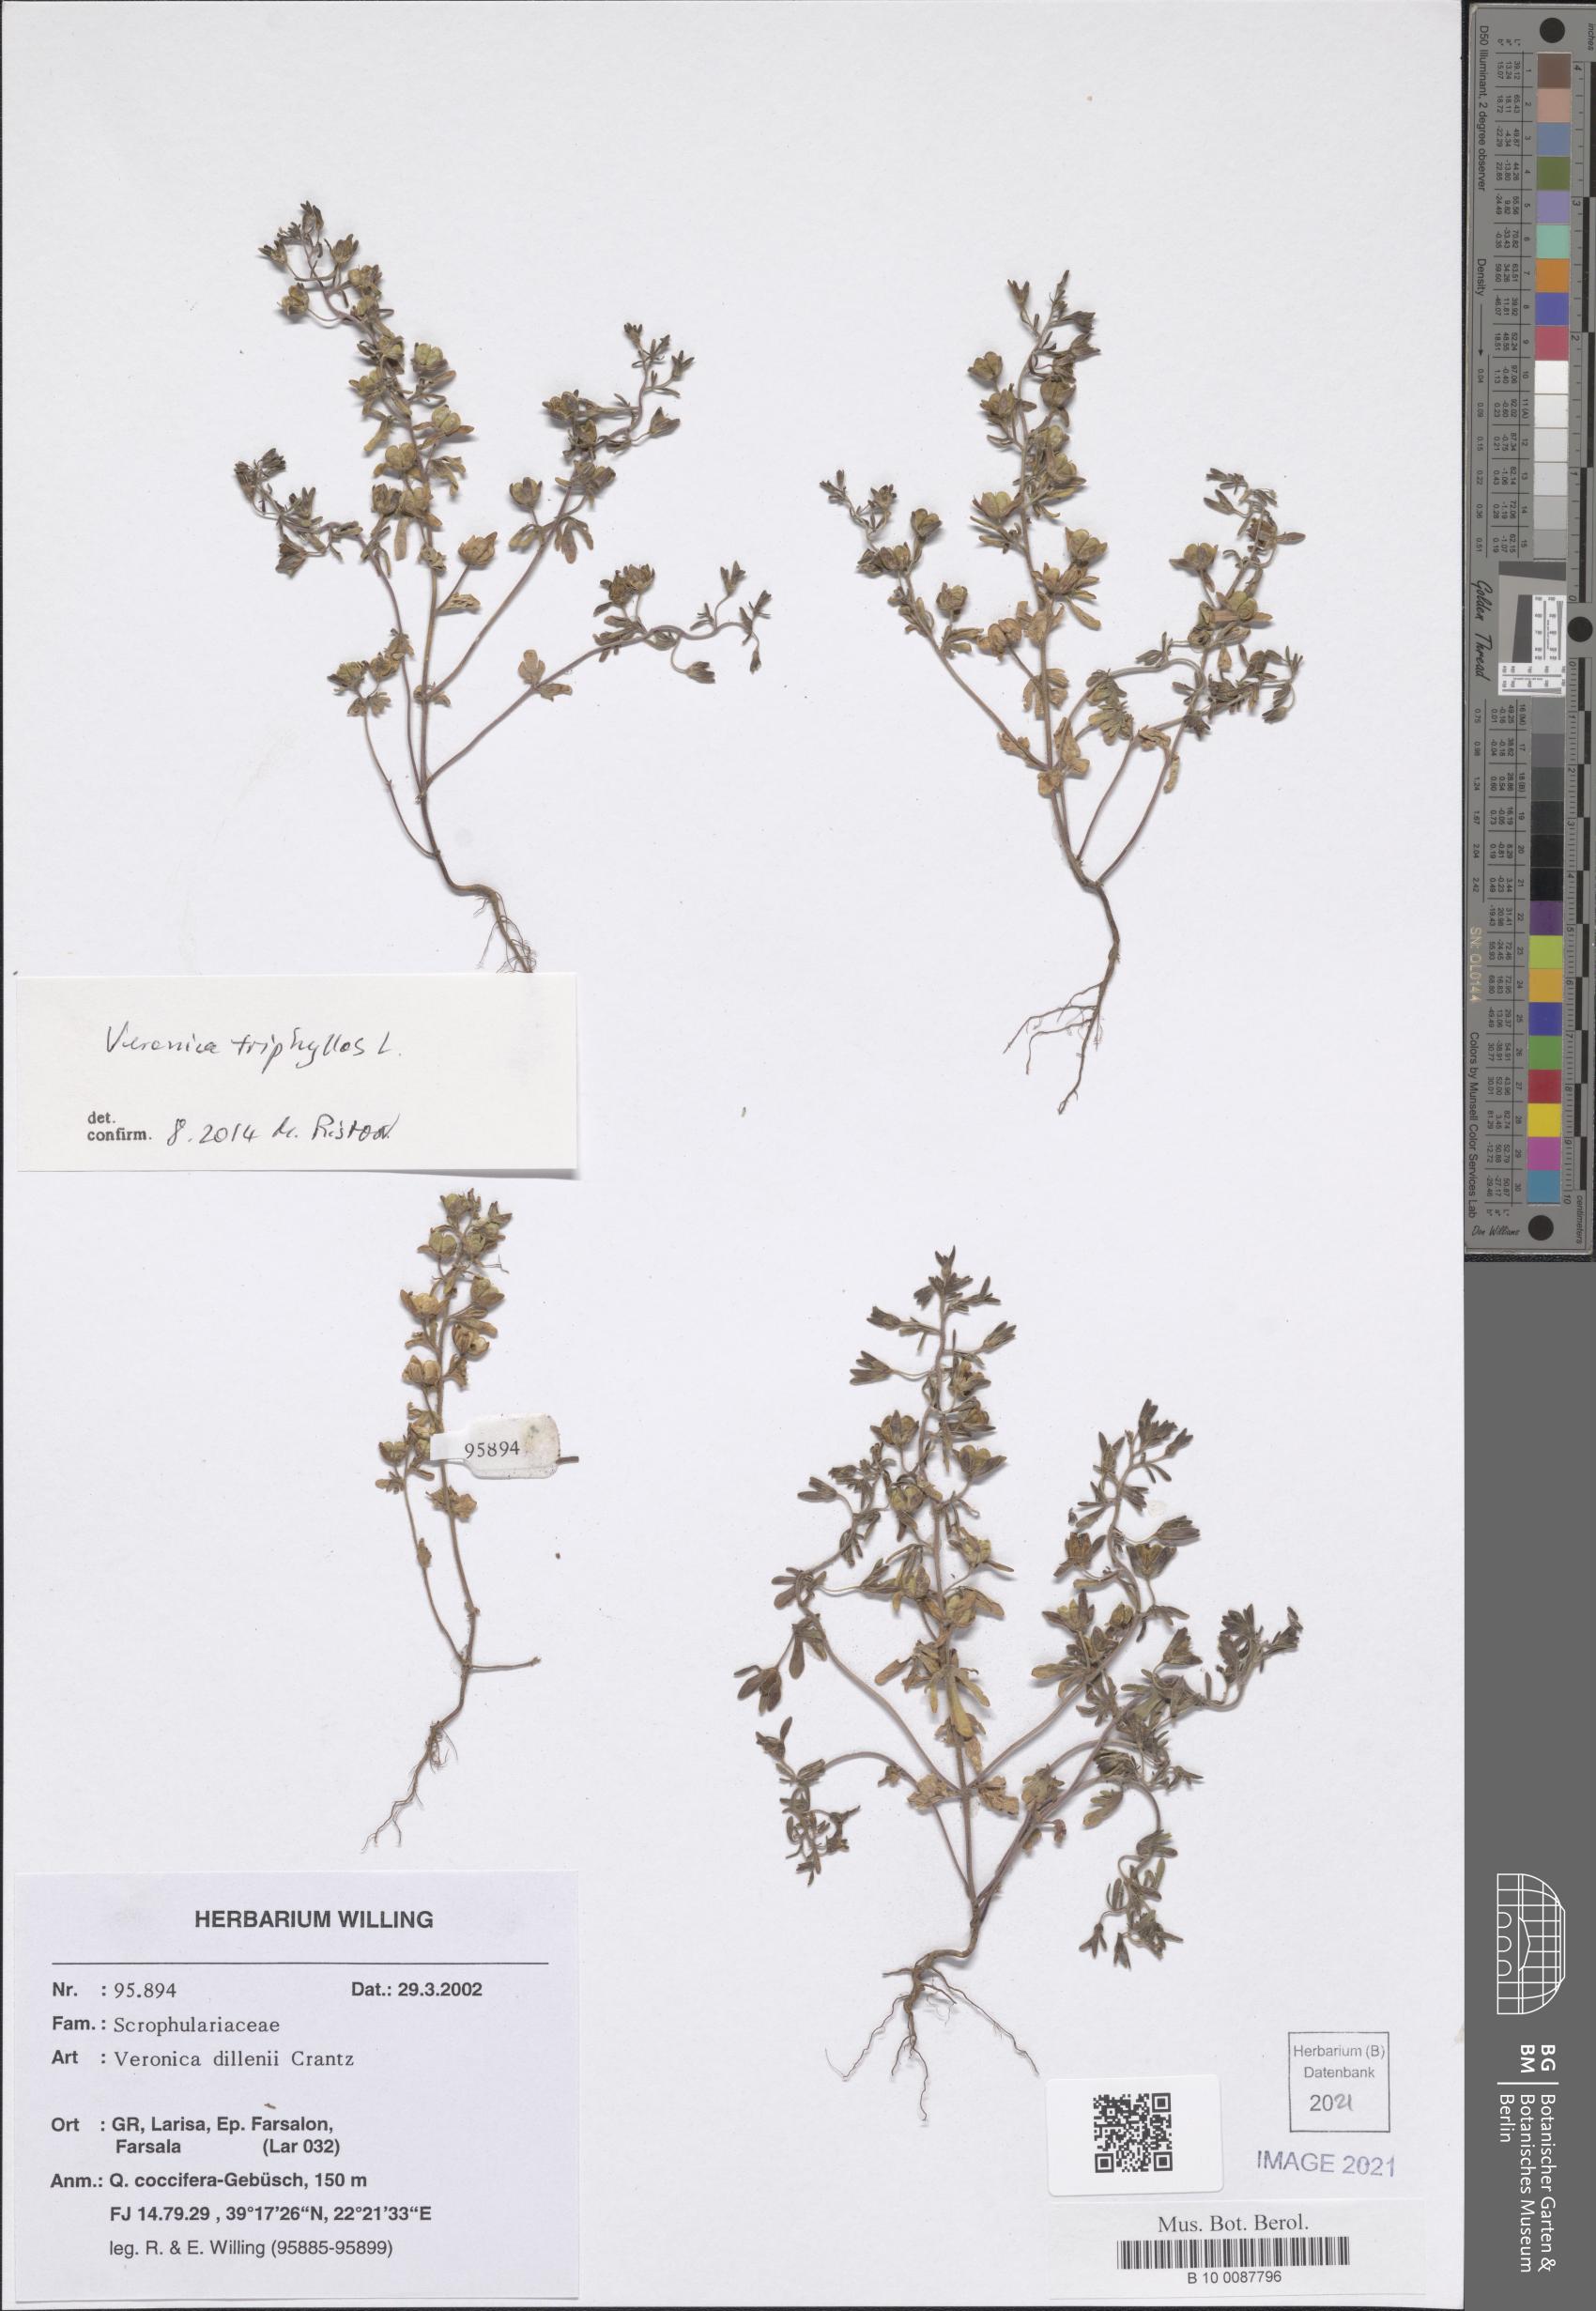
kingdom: Plantae
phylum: Tracheophyta
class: Magnoliopsida
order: Lamiales
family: Plantaginaceae
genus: Veronica
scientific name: Veronica triphyllos
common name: Fingered speedwell
